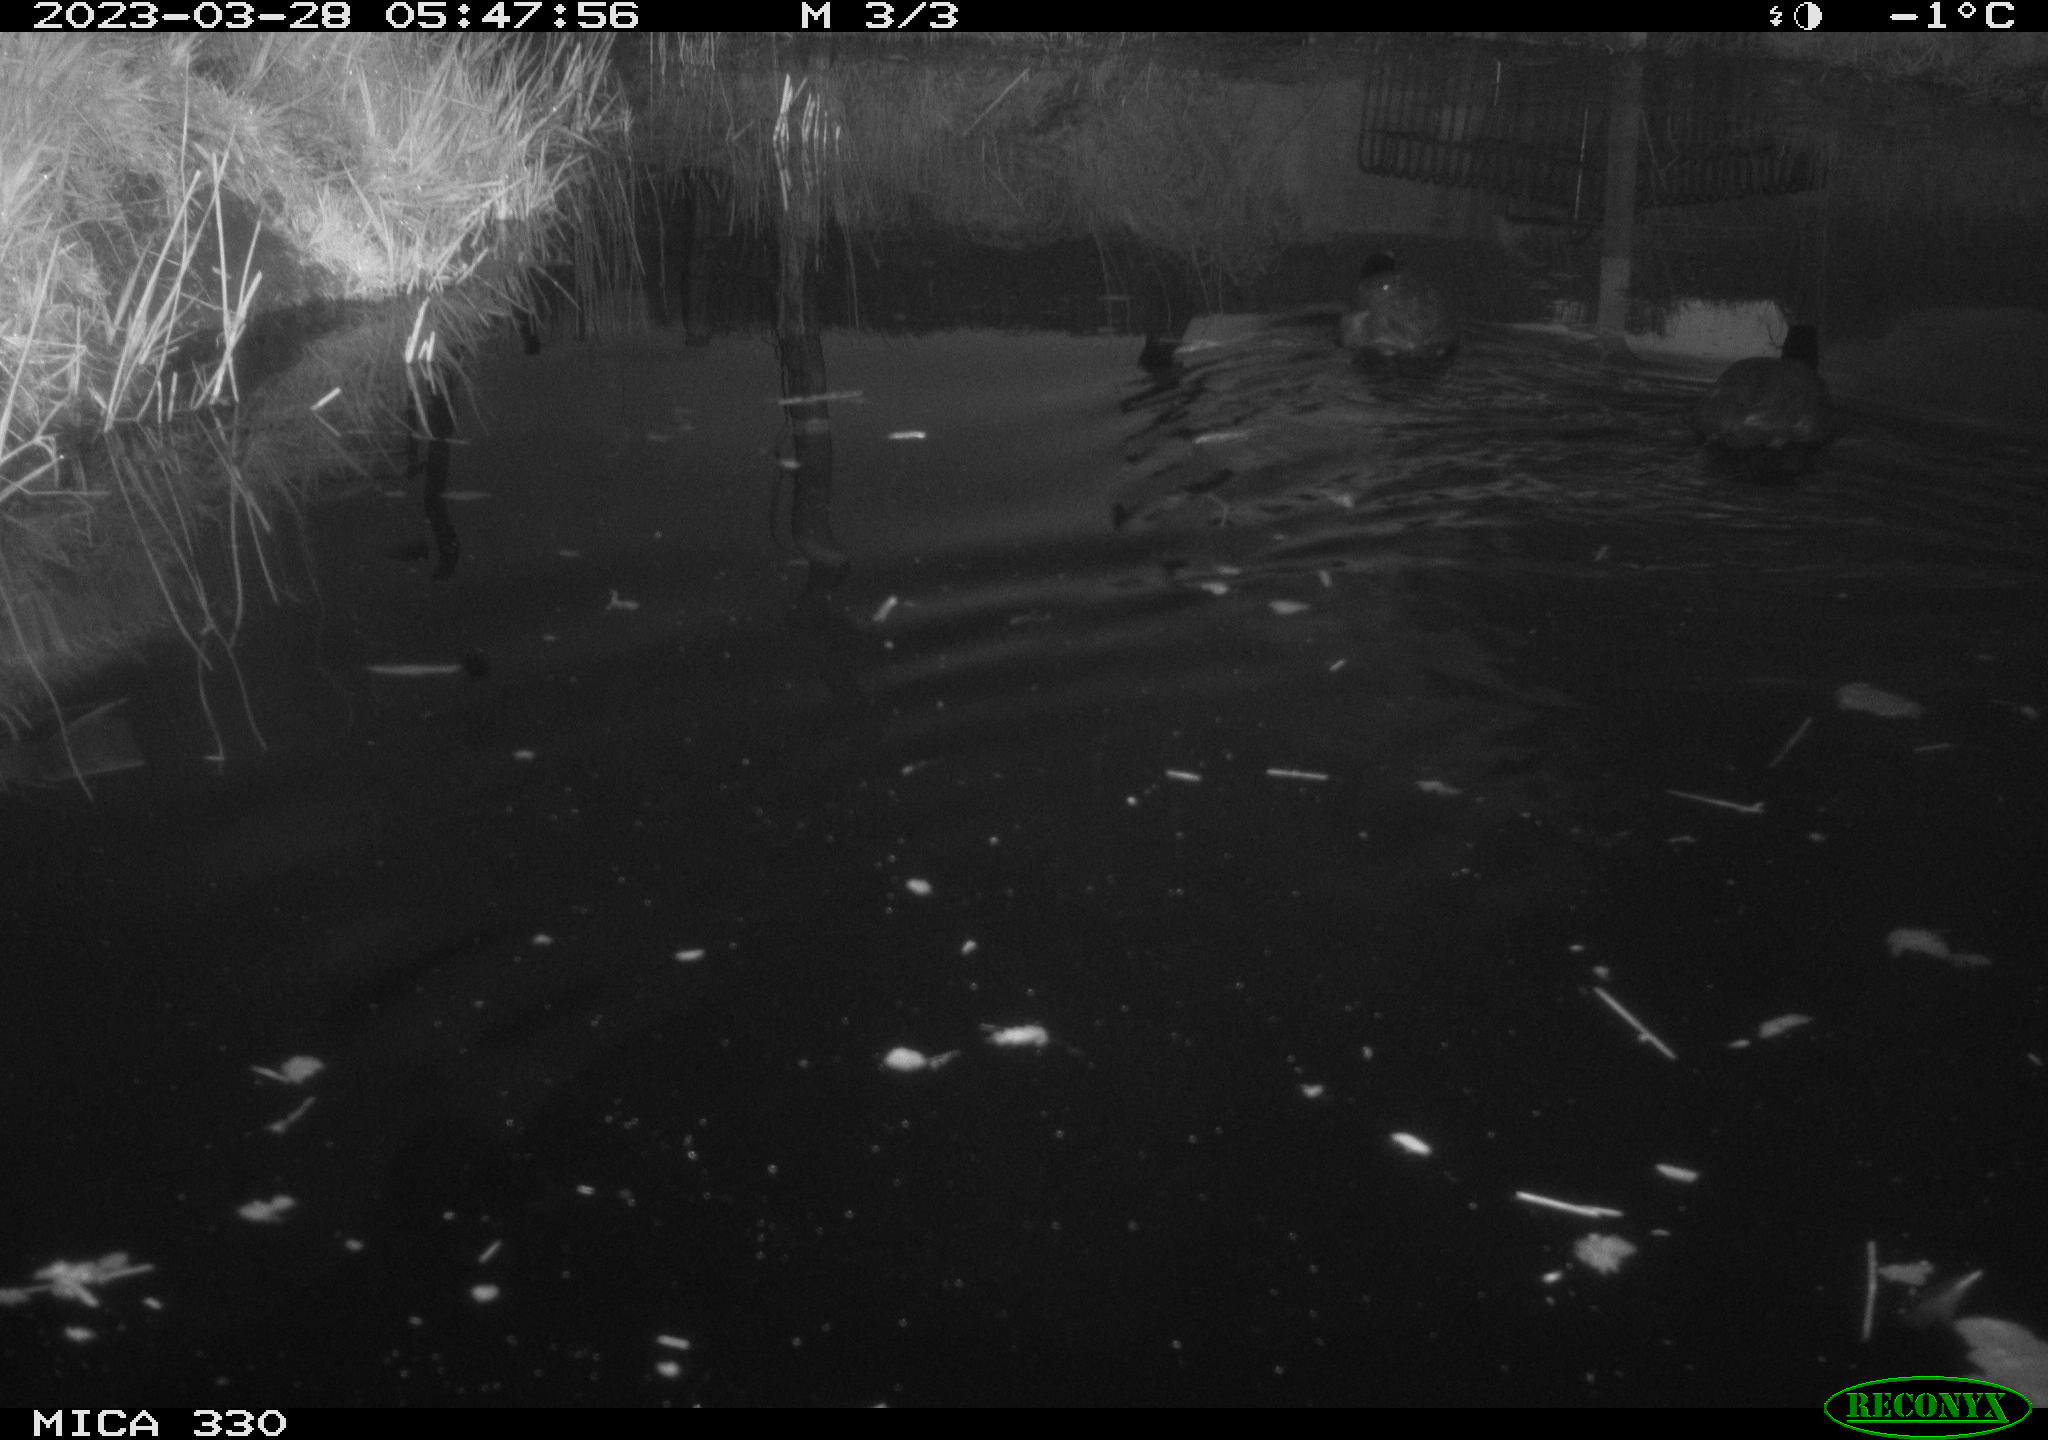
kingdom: Animalia
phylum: Chordata
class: Aves
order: Gruiformes
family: Rallidae
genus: Fulica
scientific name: Fulica atra
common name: Eurasian coot
